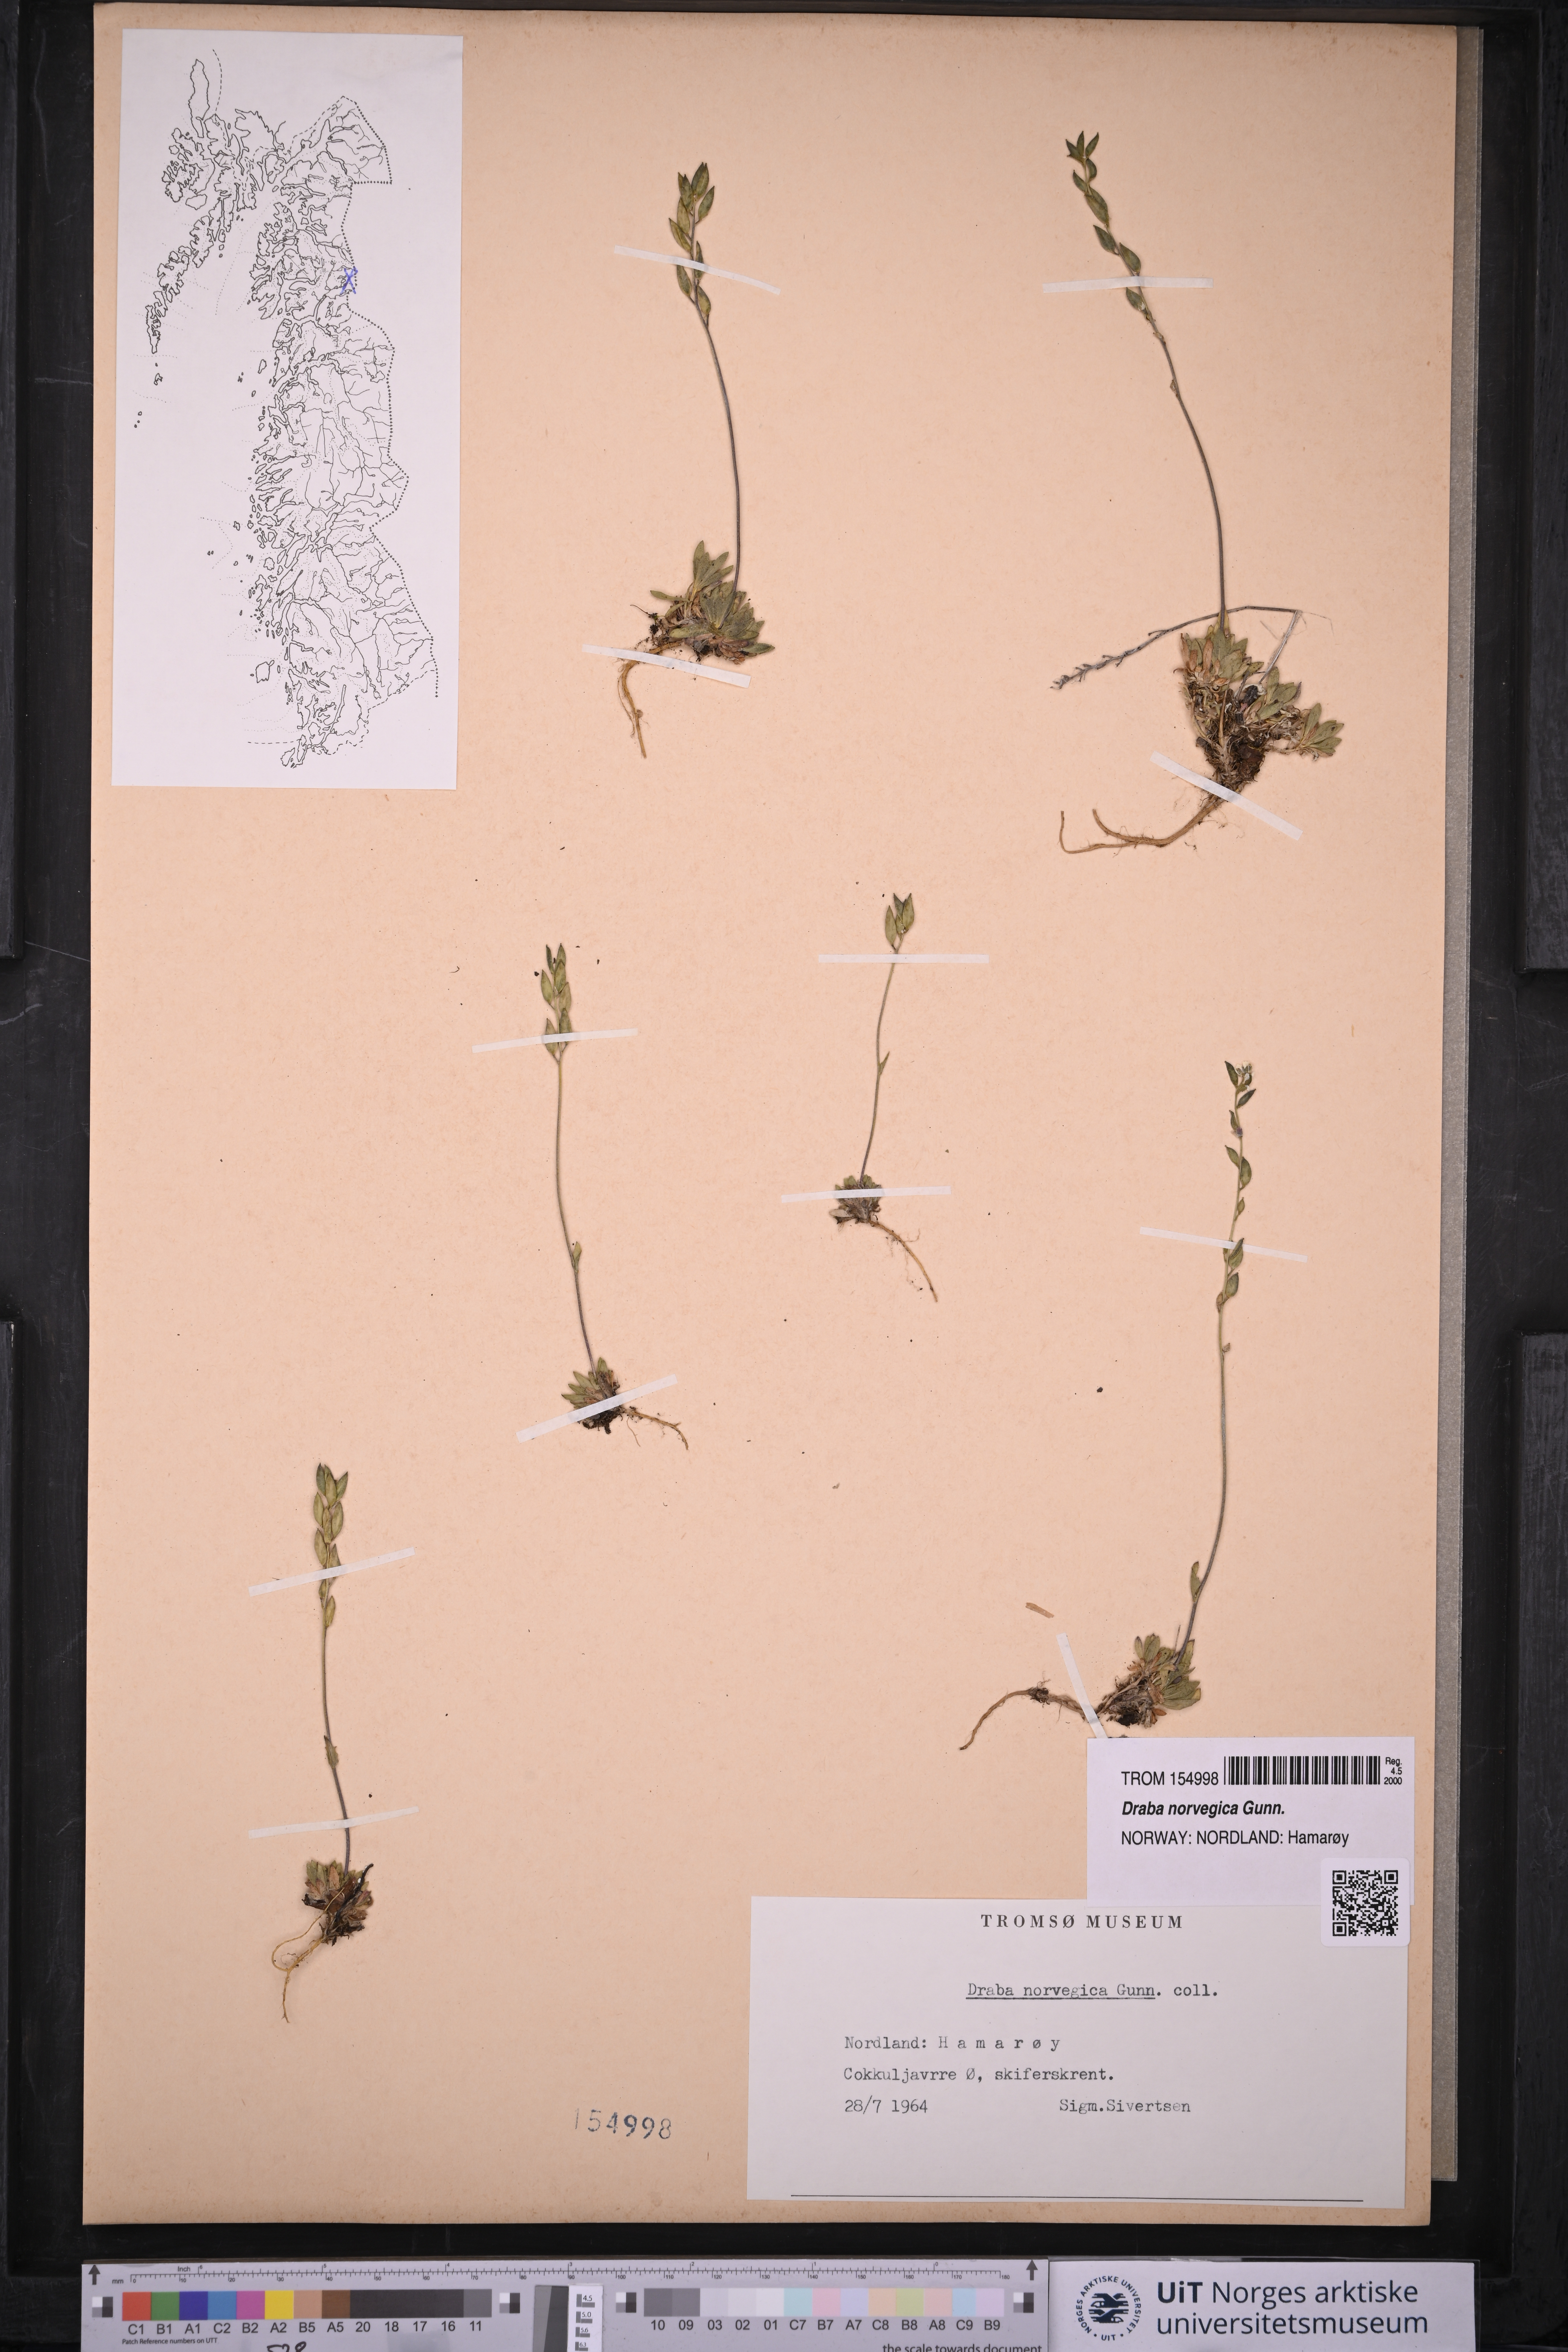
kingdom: Plantae
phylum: Tracheophyta
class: Magnoliopsida
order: Brassicales
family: Brassicaceae
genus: Draba
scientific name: Draba norvegica
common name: Rock whitlowgrass
